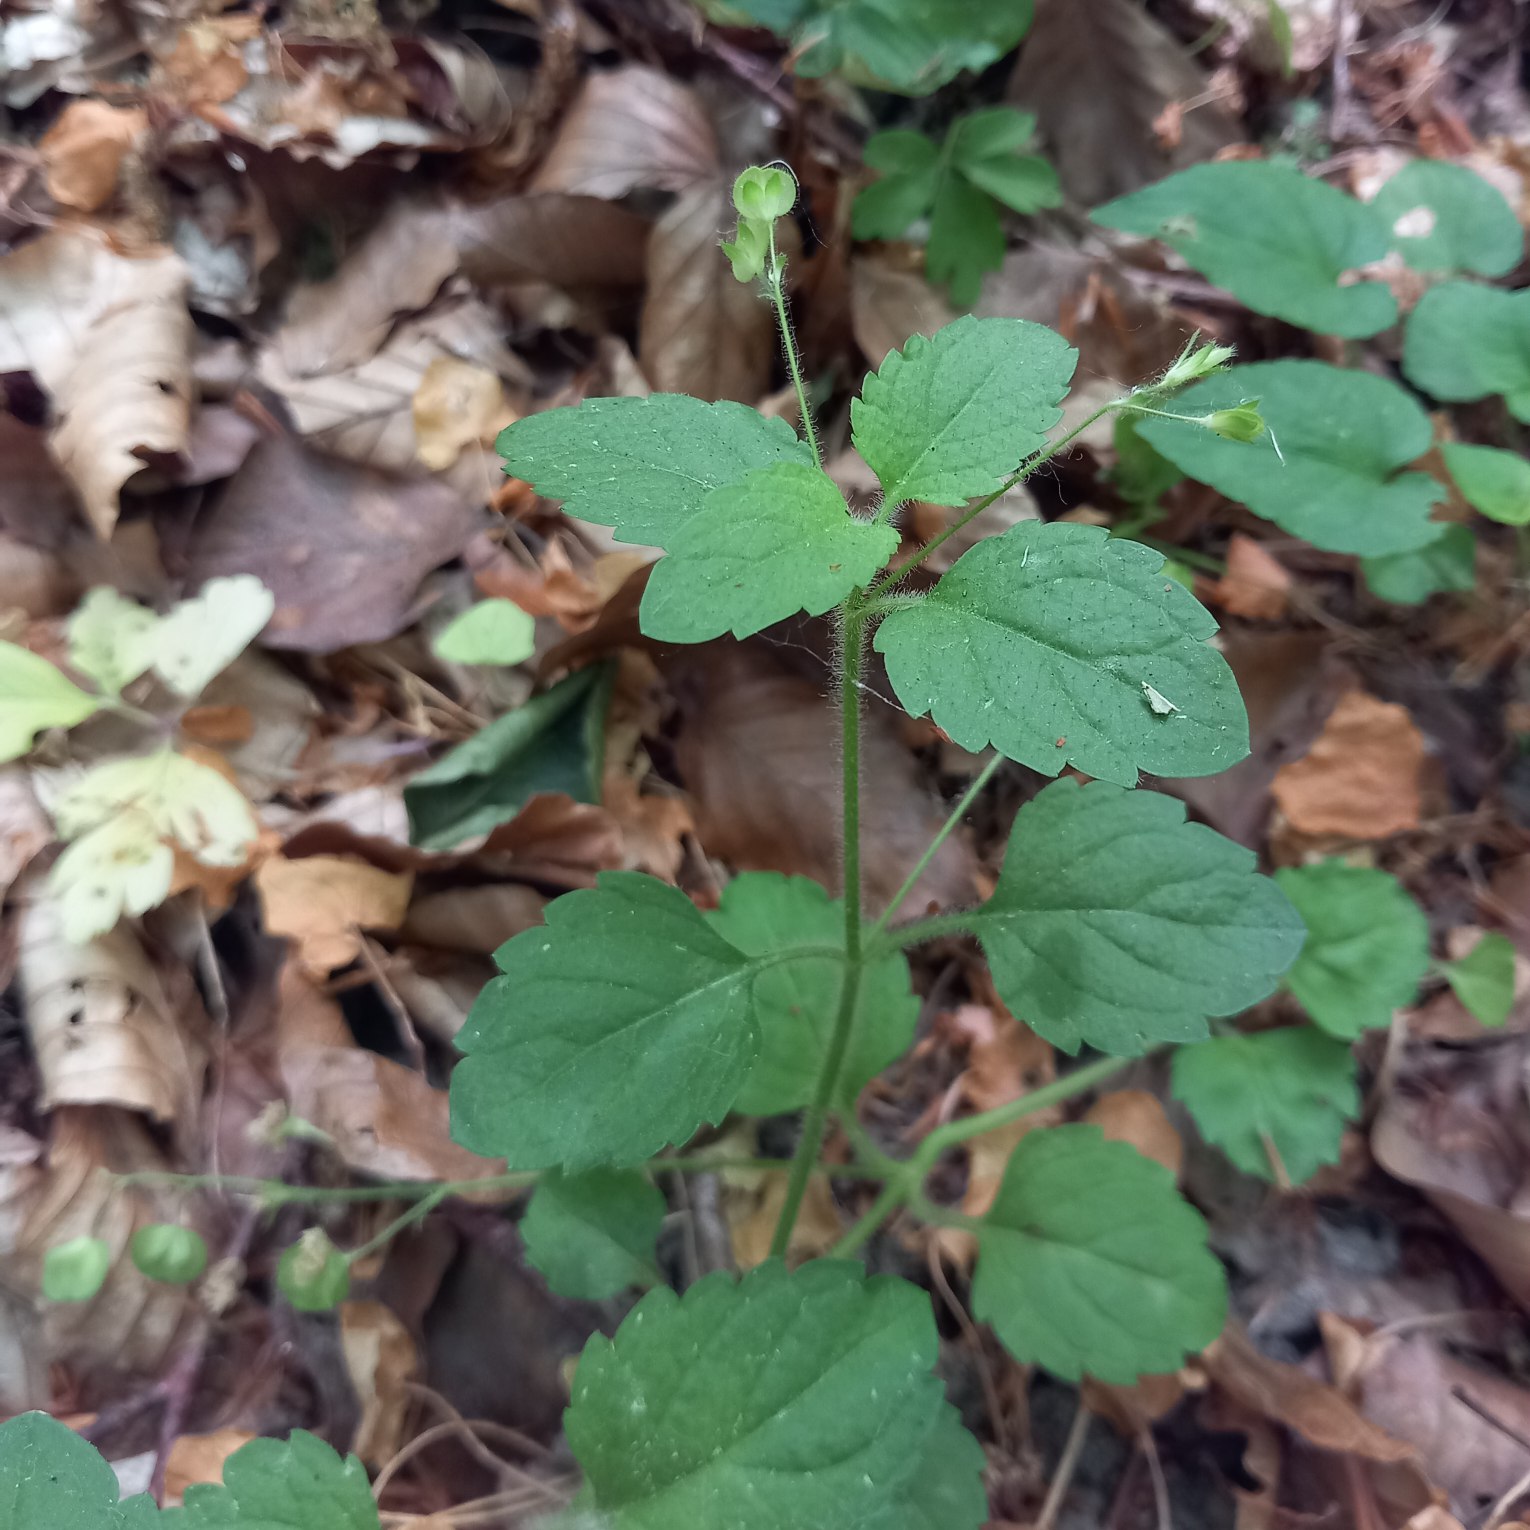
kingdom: Plantae
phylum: Tracheophyta
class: Magnoliopsida
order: Lamiales
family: Plantaginaceae
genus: Veronica
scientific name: Veronica montana
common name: Bjerg-ærenpris
